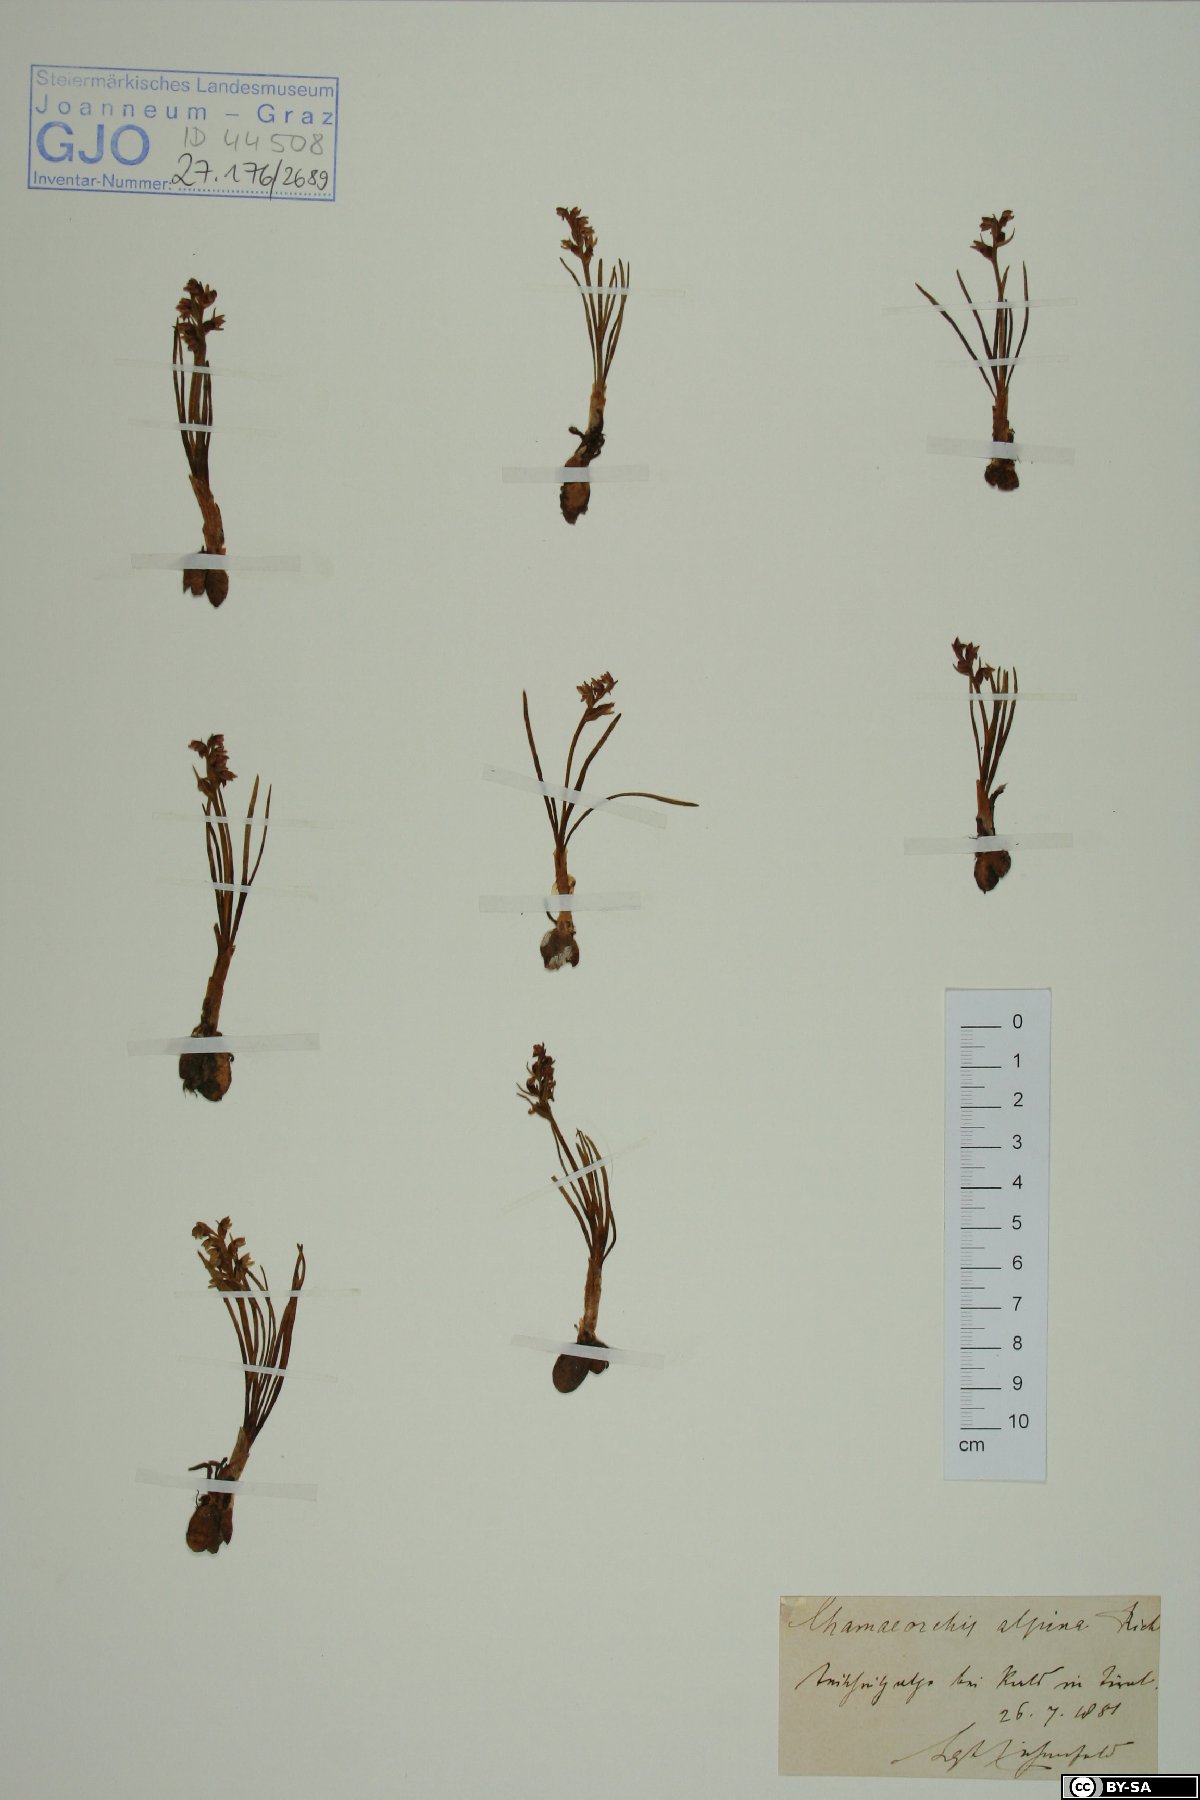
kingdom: Plantae
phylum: Tracheophyta
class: Liliopsida
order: Asparagales
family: Orchidaceae
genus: Chamorchis
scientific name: Chamorchis alpina
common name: Alpine chamorchis
